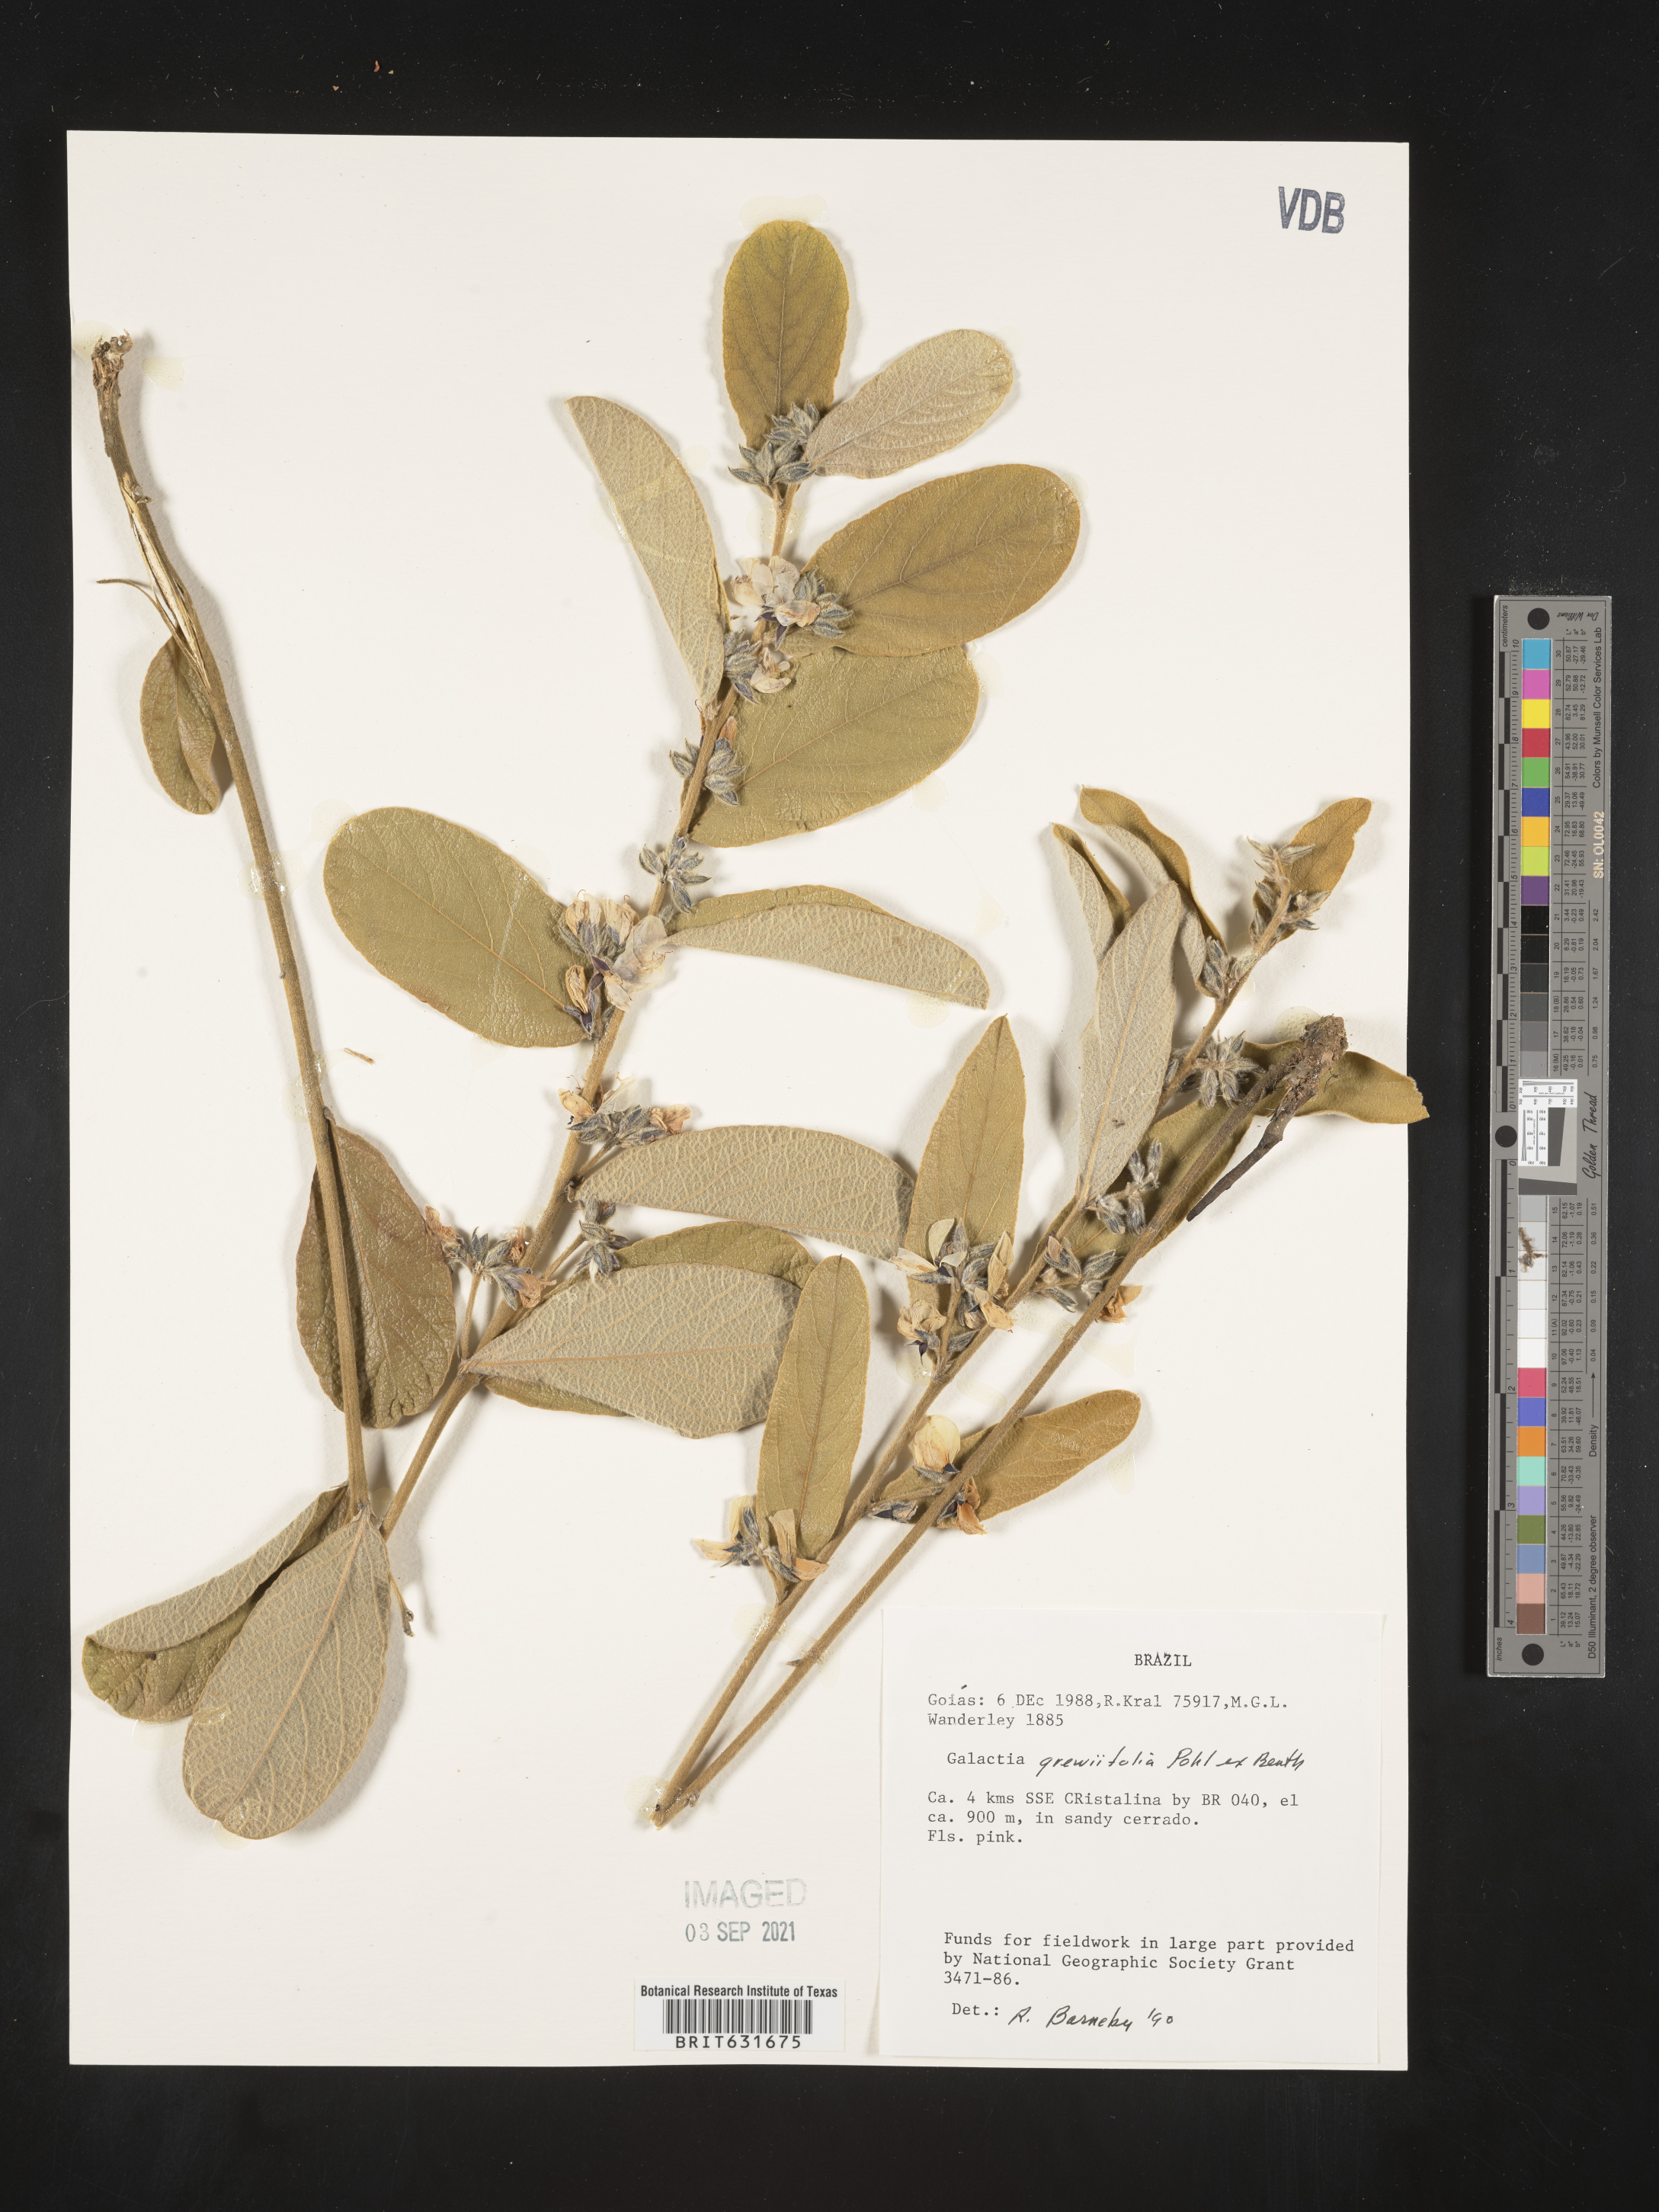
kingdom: Plantae
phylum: Tracheophyta
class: Magnoliopsida
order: Fabales
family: Fabaceae
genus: Galactia
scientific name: Galactia
